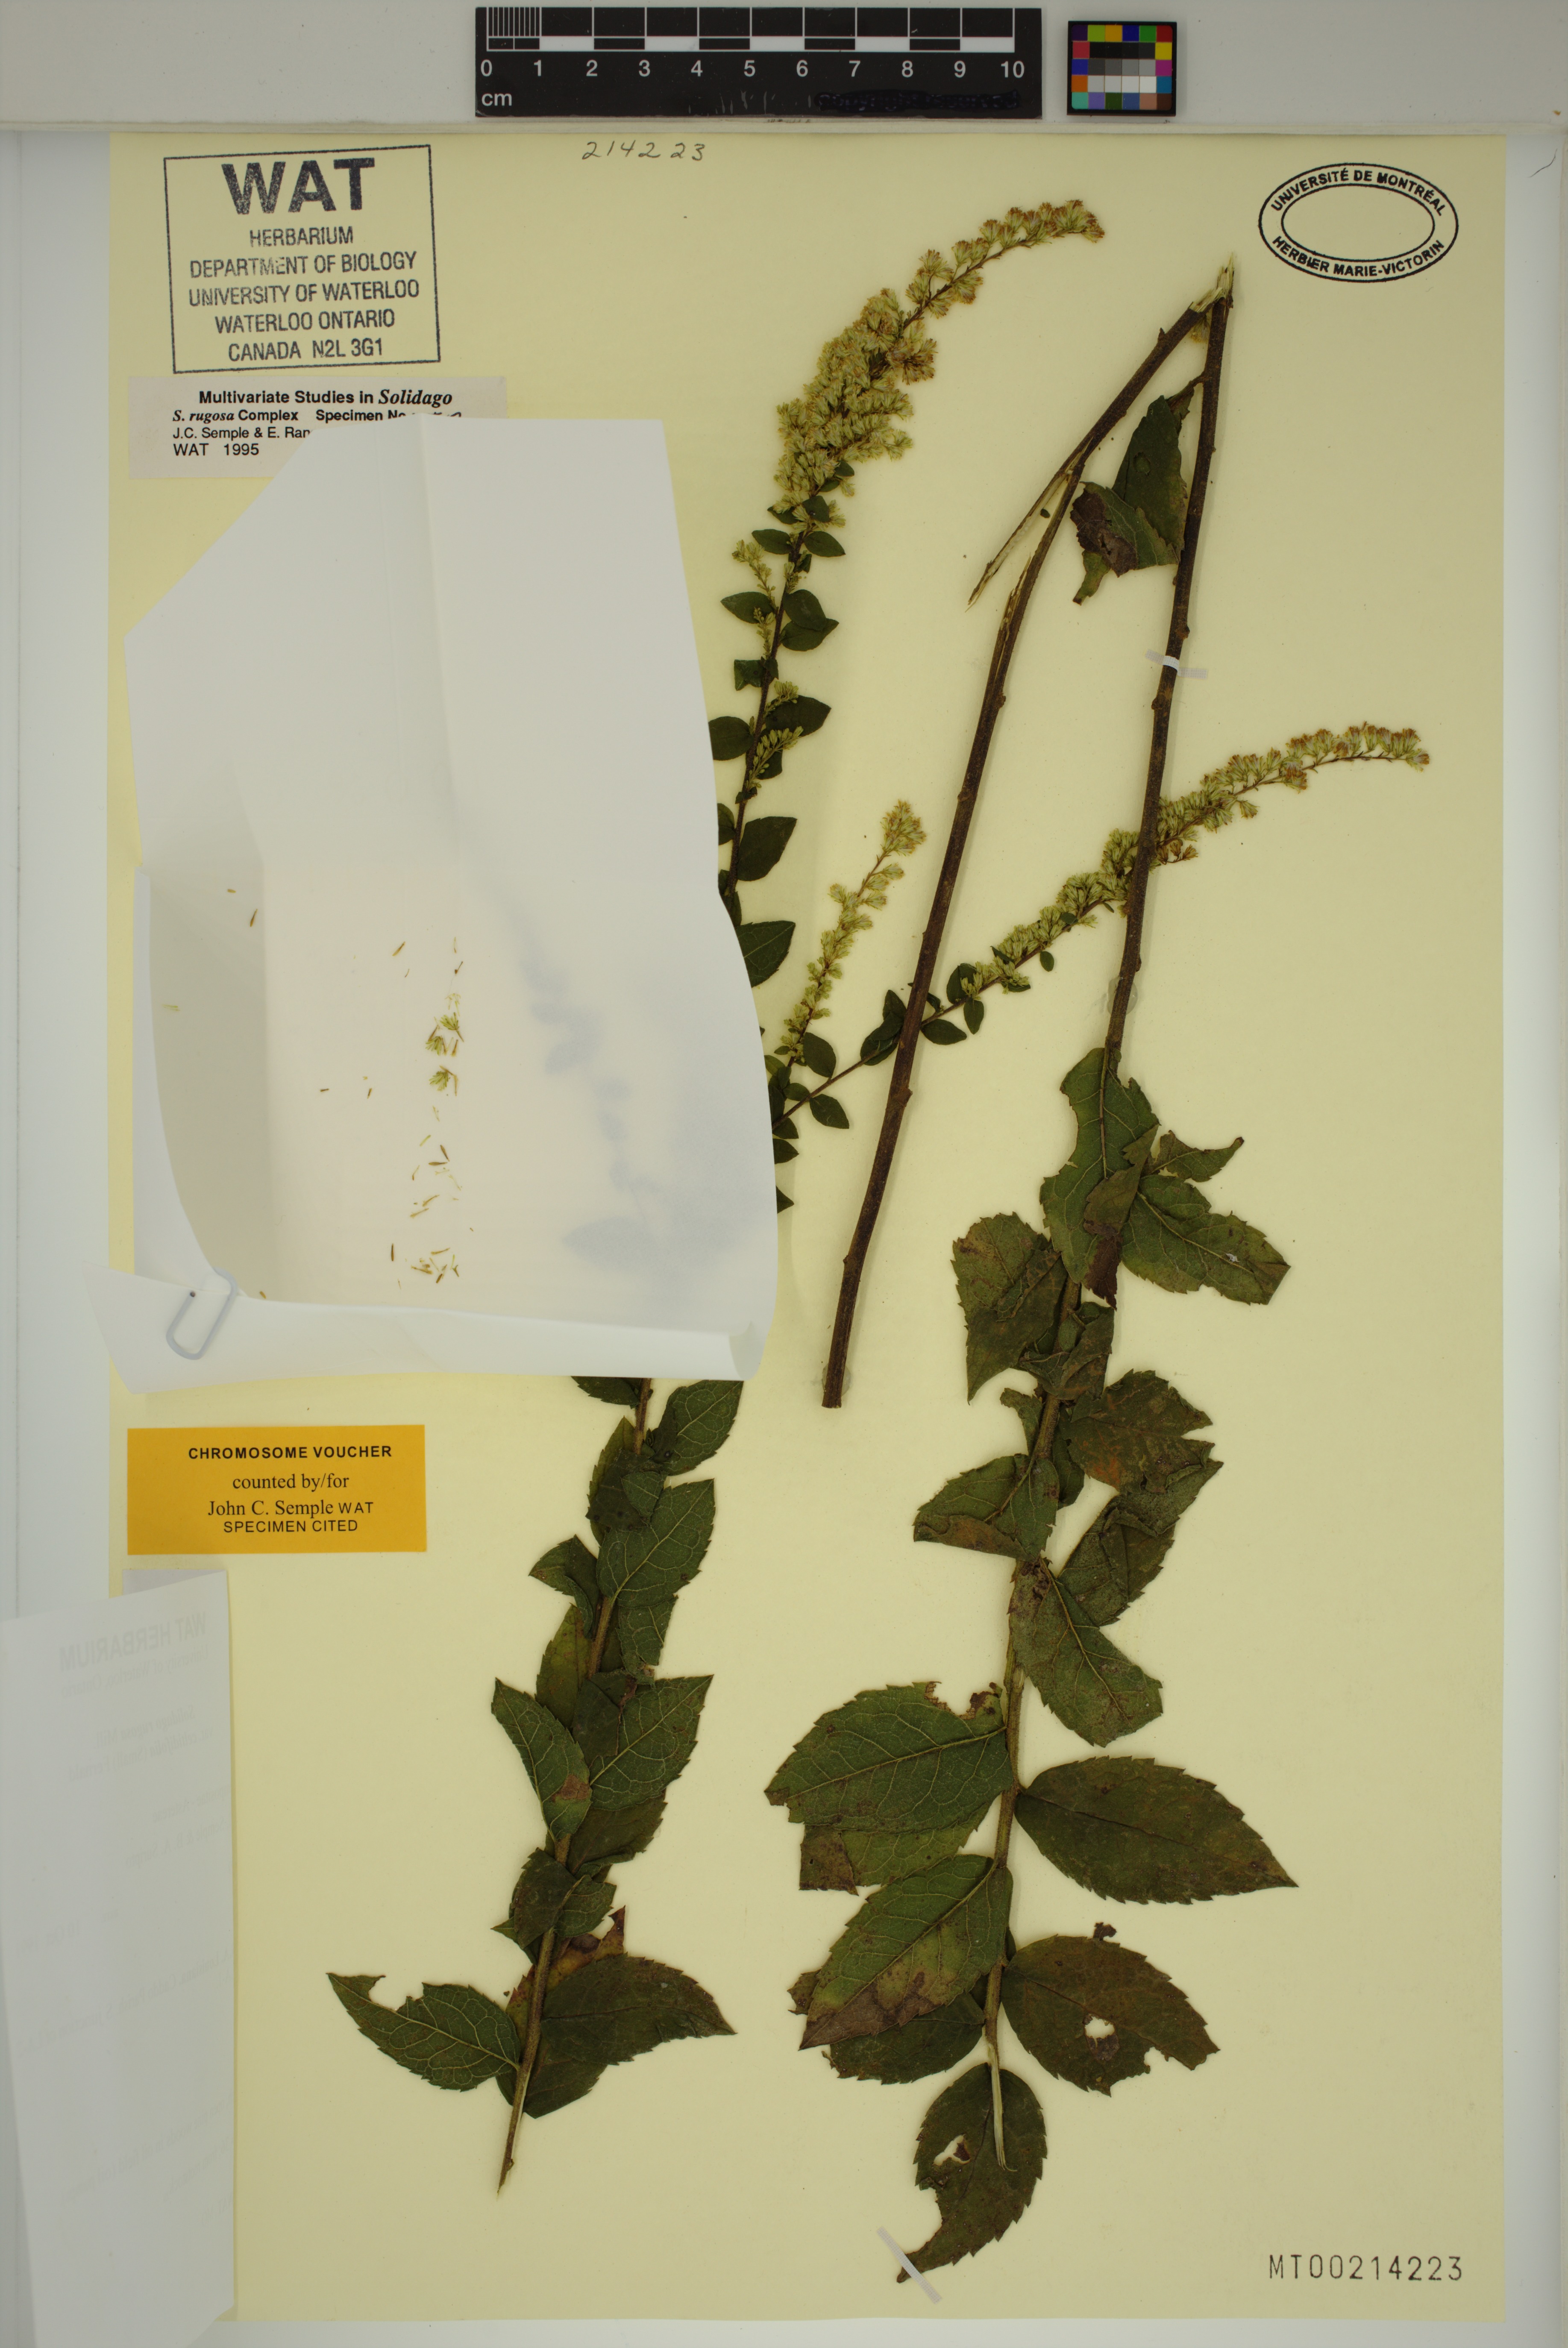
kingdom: Plantae
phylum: Tracheophyta
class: Magnoliopsida
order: Asterales
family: Asteraceae
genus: Solidago
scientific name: Solidago rugosa
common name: Rough-stemmed goldenrod
